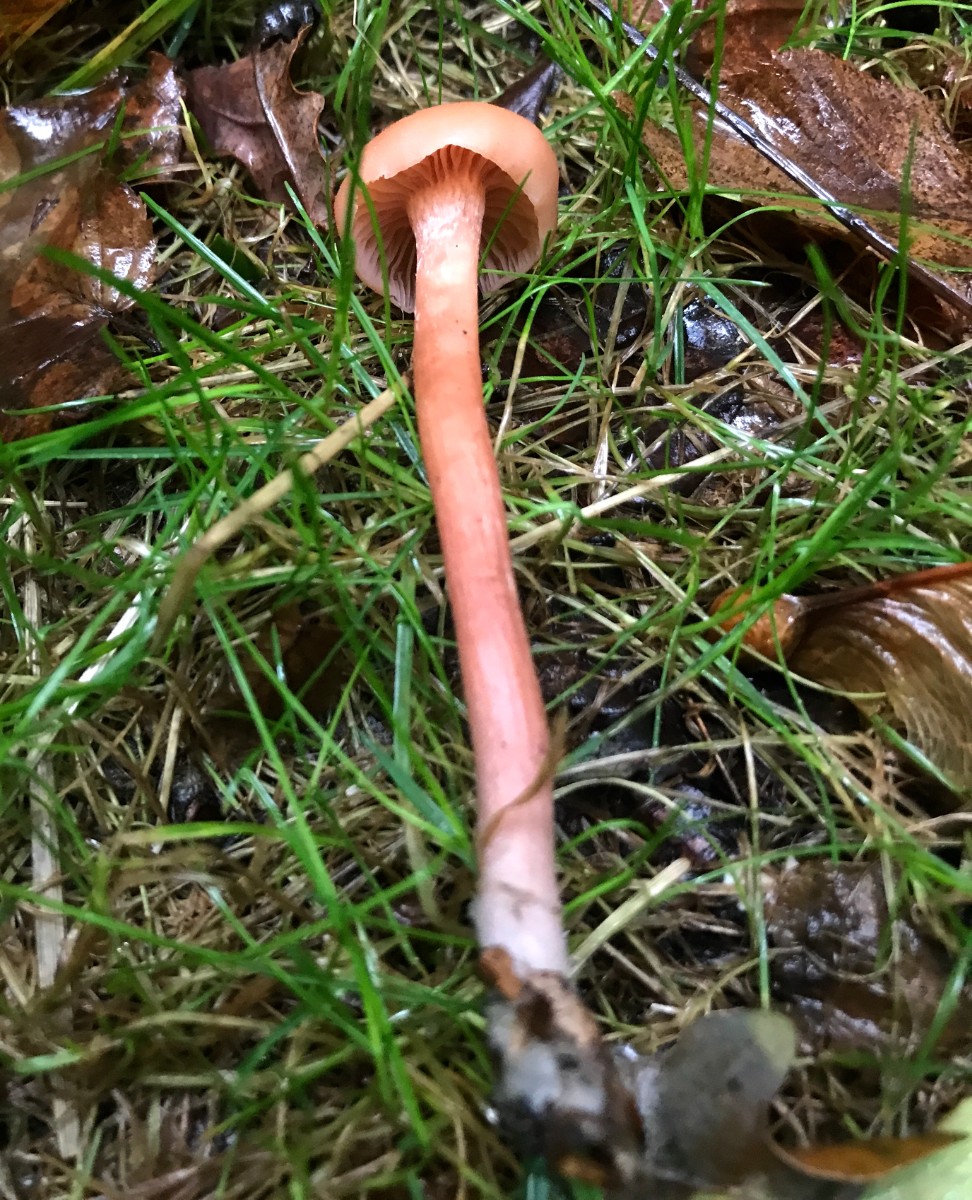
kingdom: Fungi
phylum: Basidiomycota
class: Agaricomycetes
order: Agaricales
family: Hydnangiaceae
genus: Laccaria
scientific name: Laccaria laccata
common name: rød ametysthat
